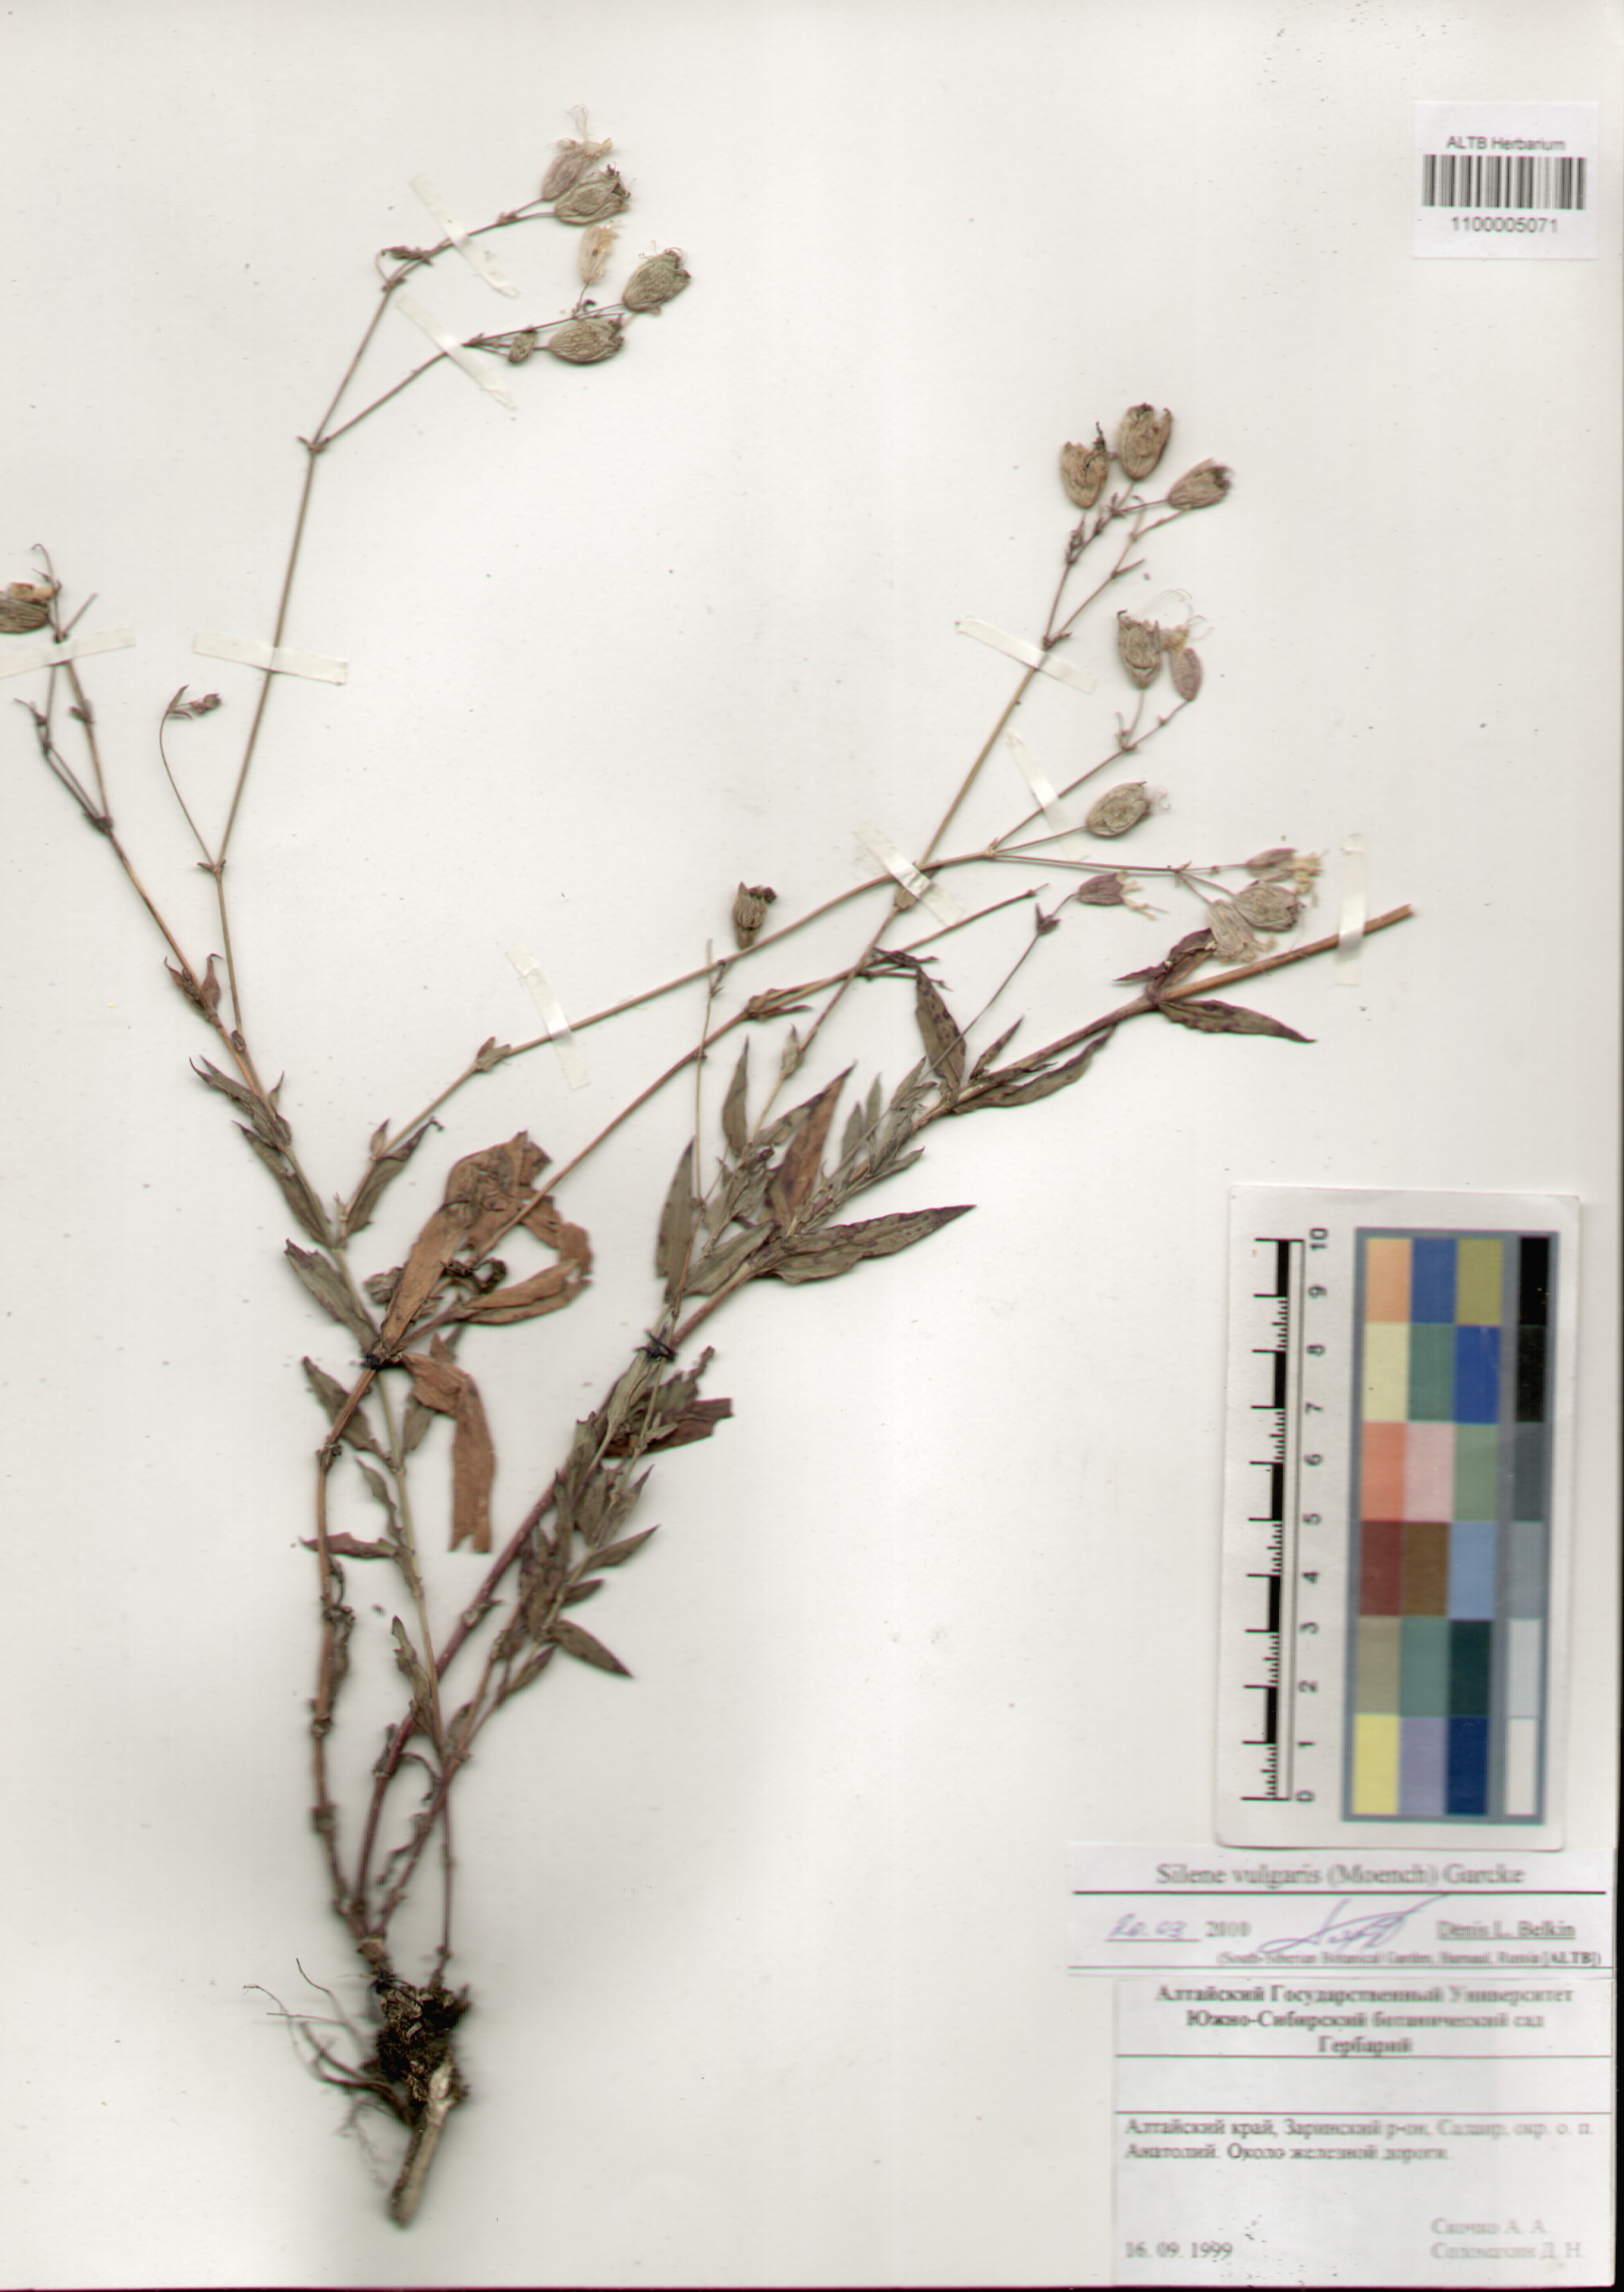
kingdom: Plantae
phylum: Tracheophyta
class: Magnoliopsida
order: Caryophyllales
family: Caryophyllaceae
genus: Silene
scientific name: Silene vulgaris
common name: Bladder campion
